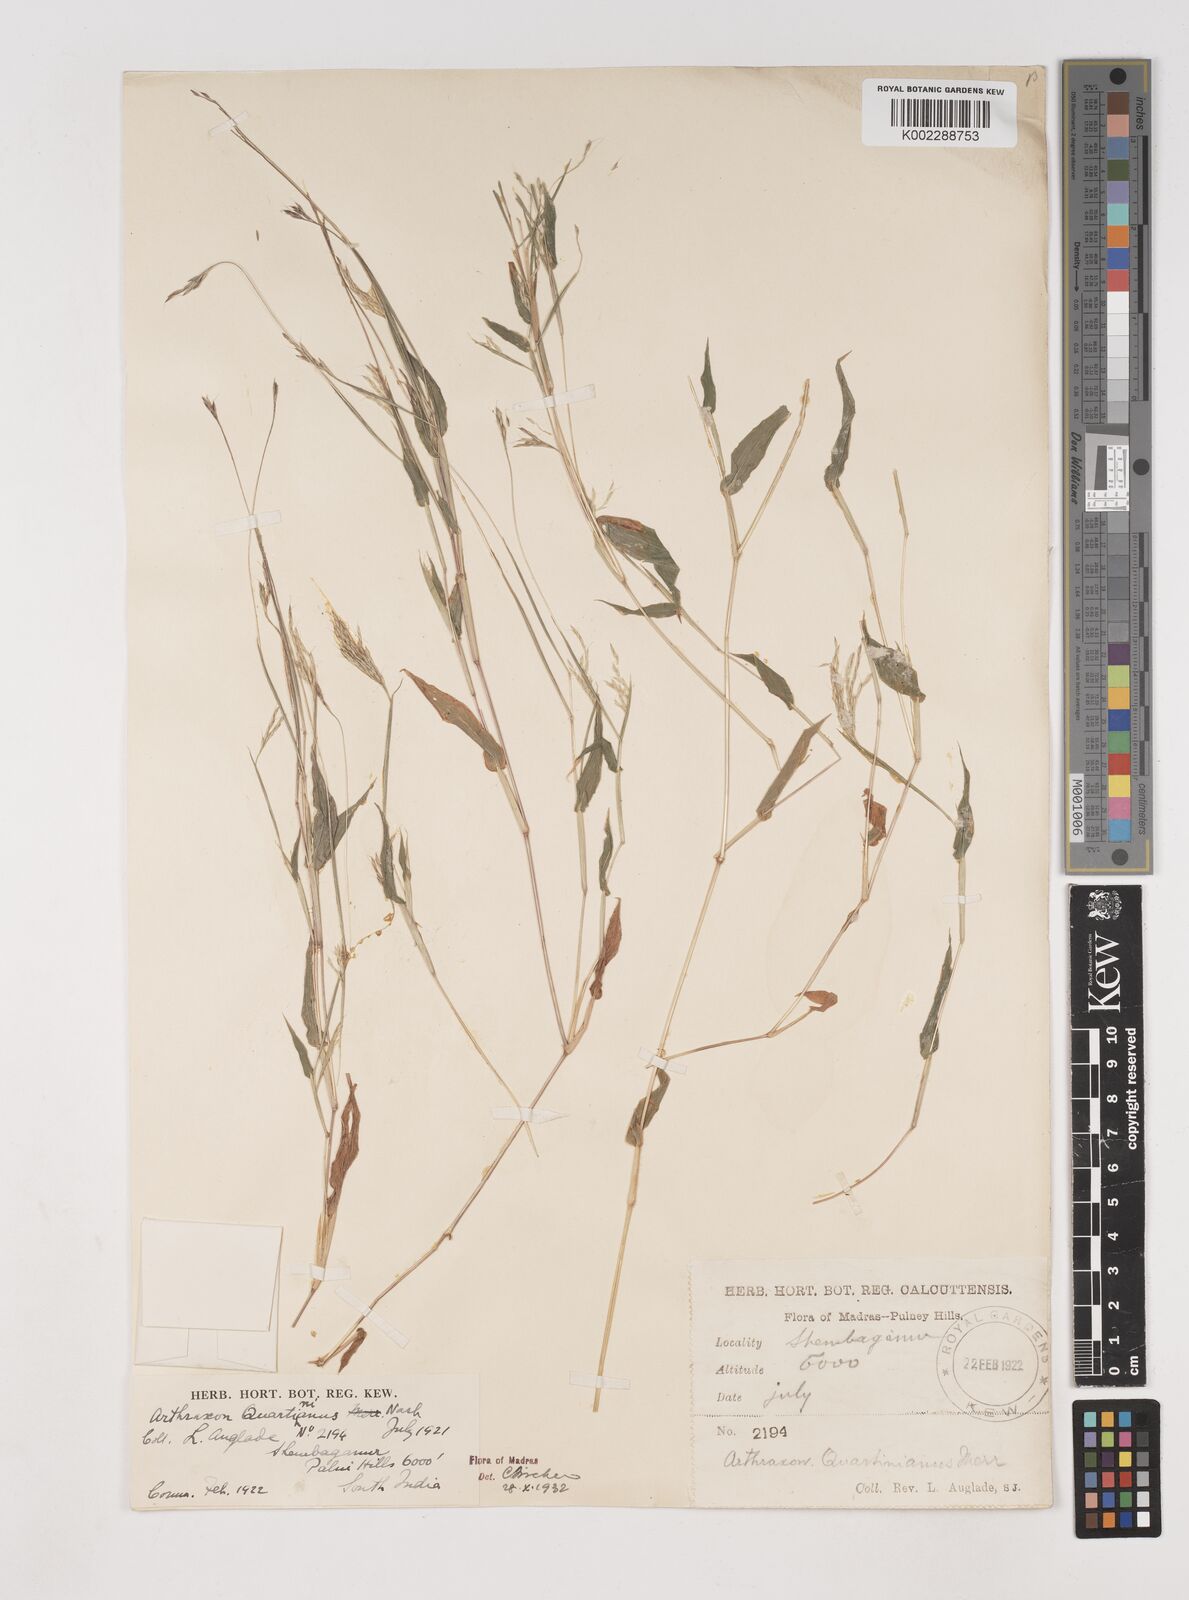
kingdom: Plantae
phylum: Tracheophyta
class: Liliopsida
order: Poales
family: Poaceae
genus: Arthraxon
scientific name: Arthraxon hispidus
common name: Small carpgrass
